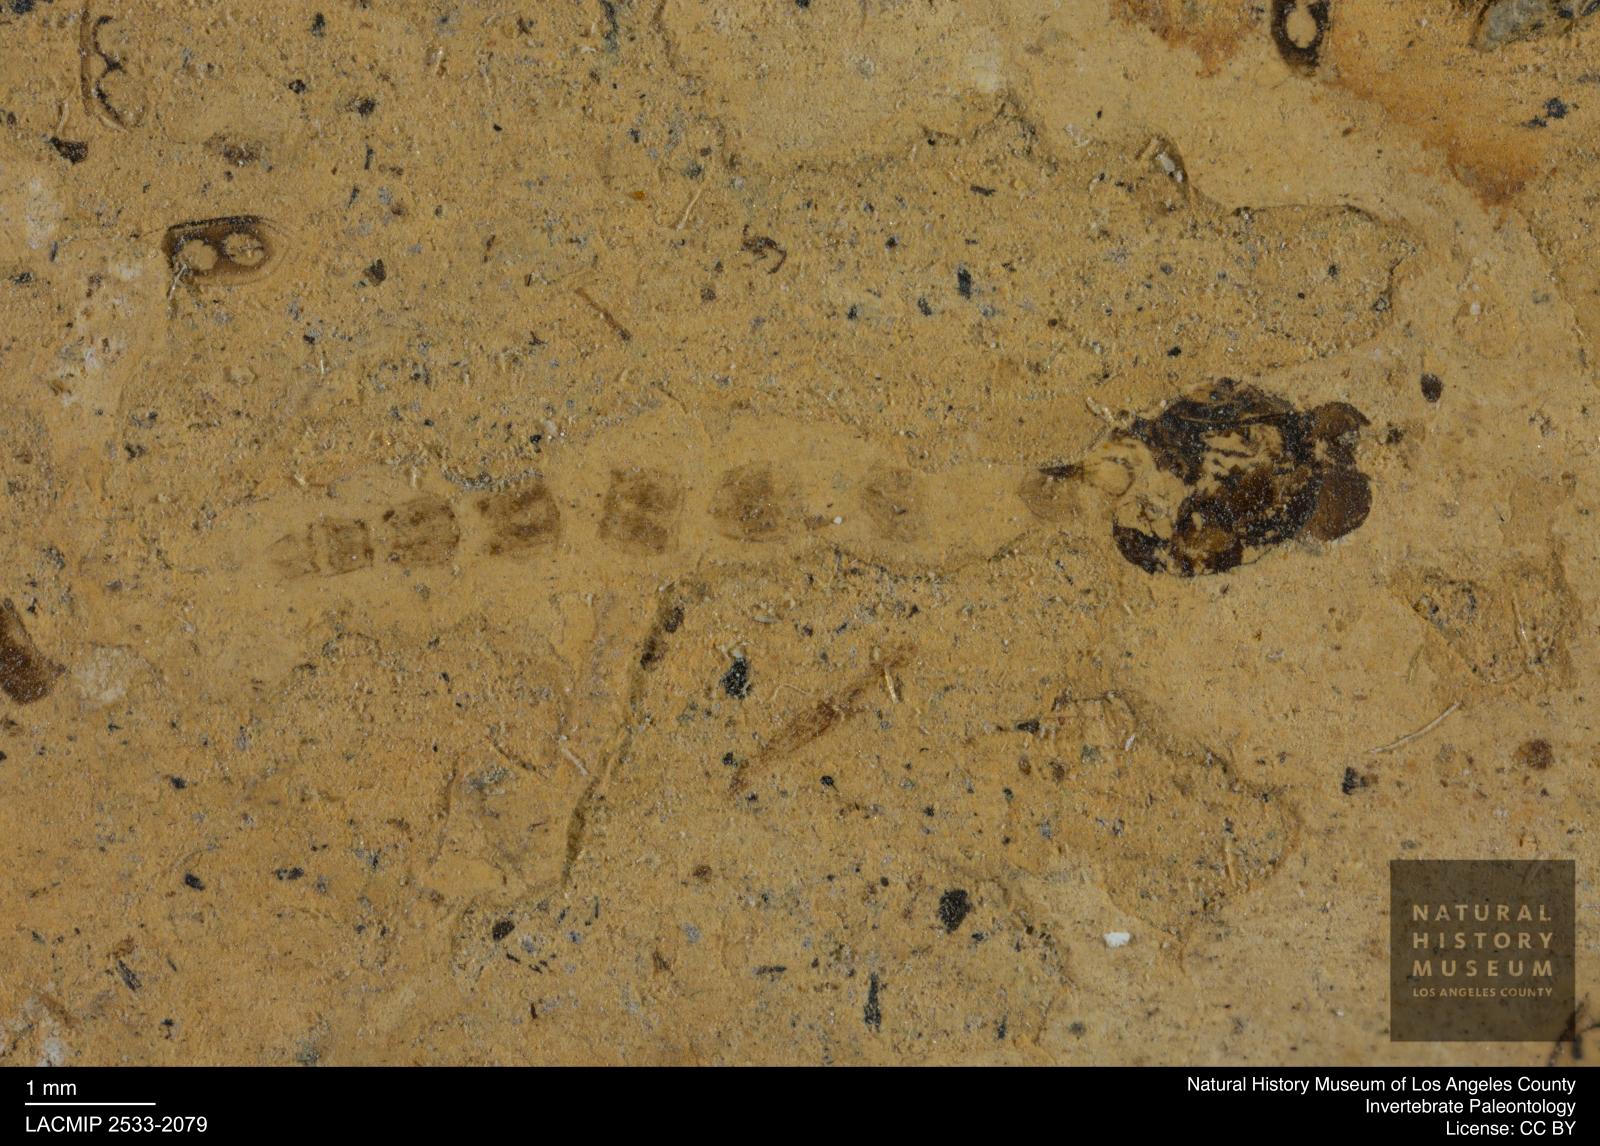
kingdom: Animalia
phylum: Arthropoda
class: Insecta
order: Diptera
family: Chironomidae
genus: Pelopiina
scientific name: Pelopiina
